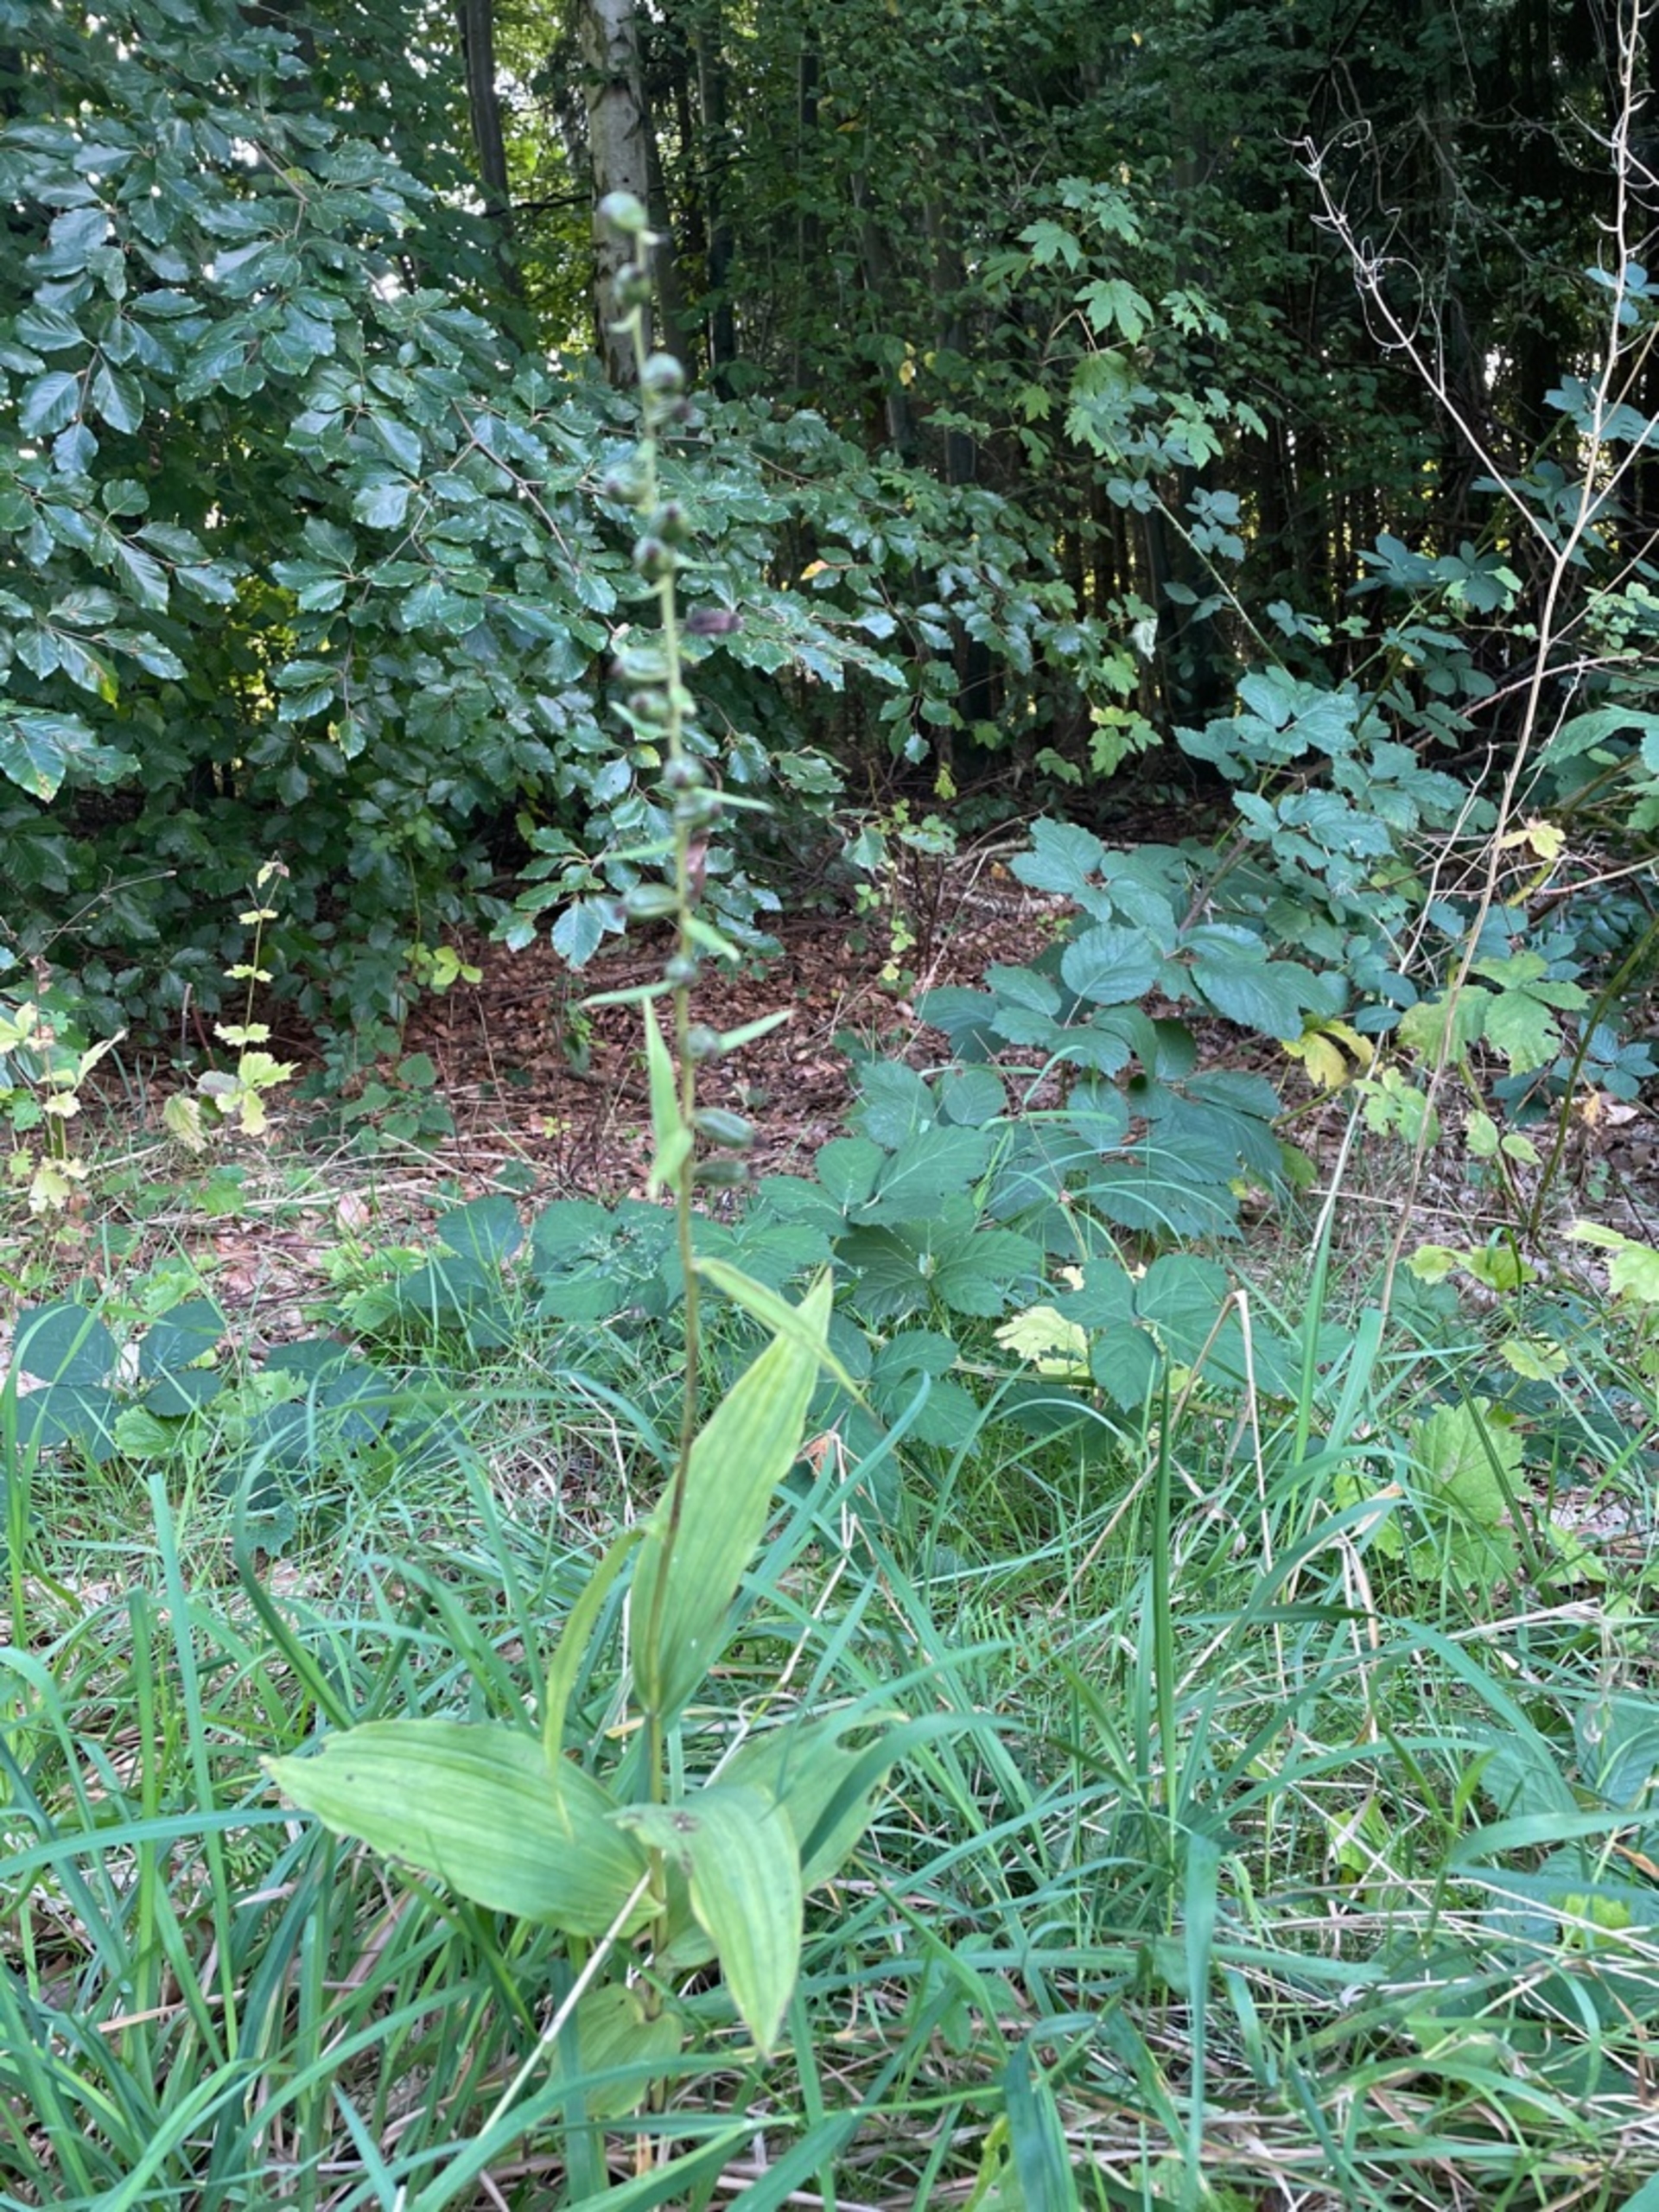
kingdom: Plantae
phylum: Tracheophyta
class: Liliopsida
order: Asparagales
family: Orchidaceae
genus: Epipactis
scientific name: Epipactis helleborine
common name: Skov-hullæbe
